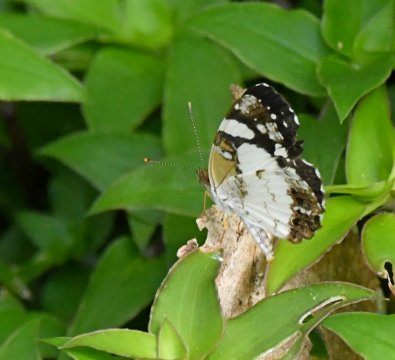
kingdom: Animalia
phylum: Arthropoda
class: Insecta
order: Lepidoptera
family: Nymphalidae
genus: Janatella
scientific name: Janatella leucodesma
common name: Whitened Crescent
